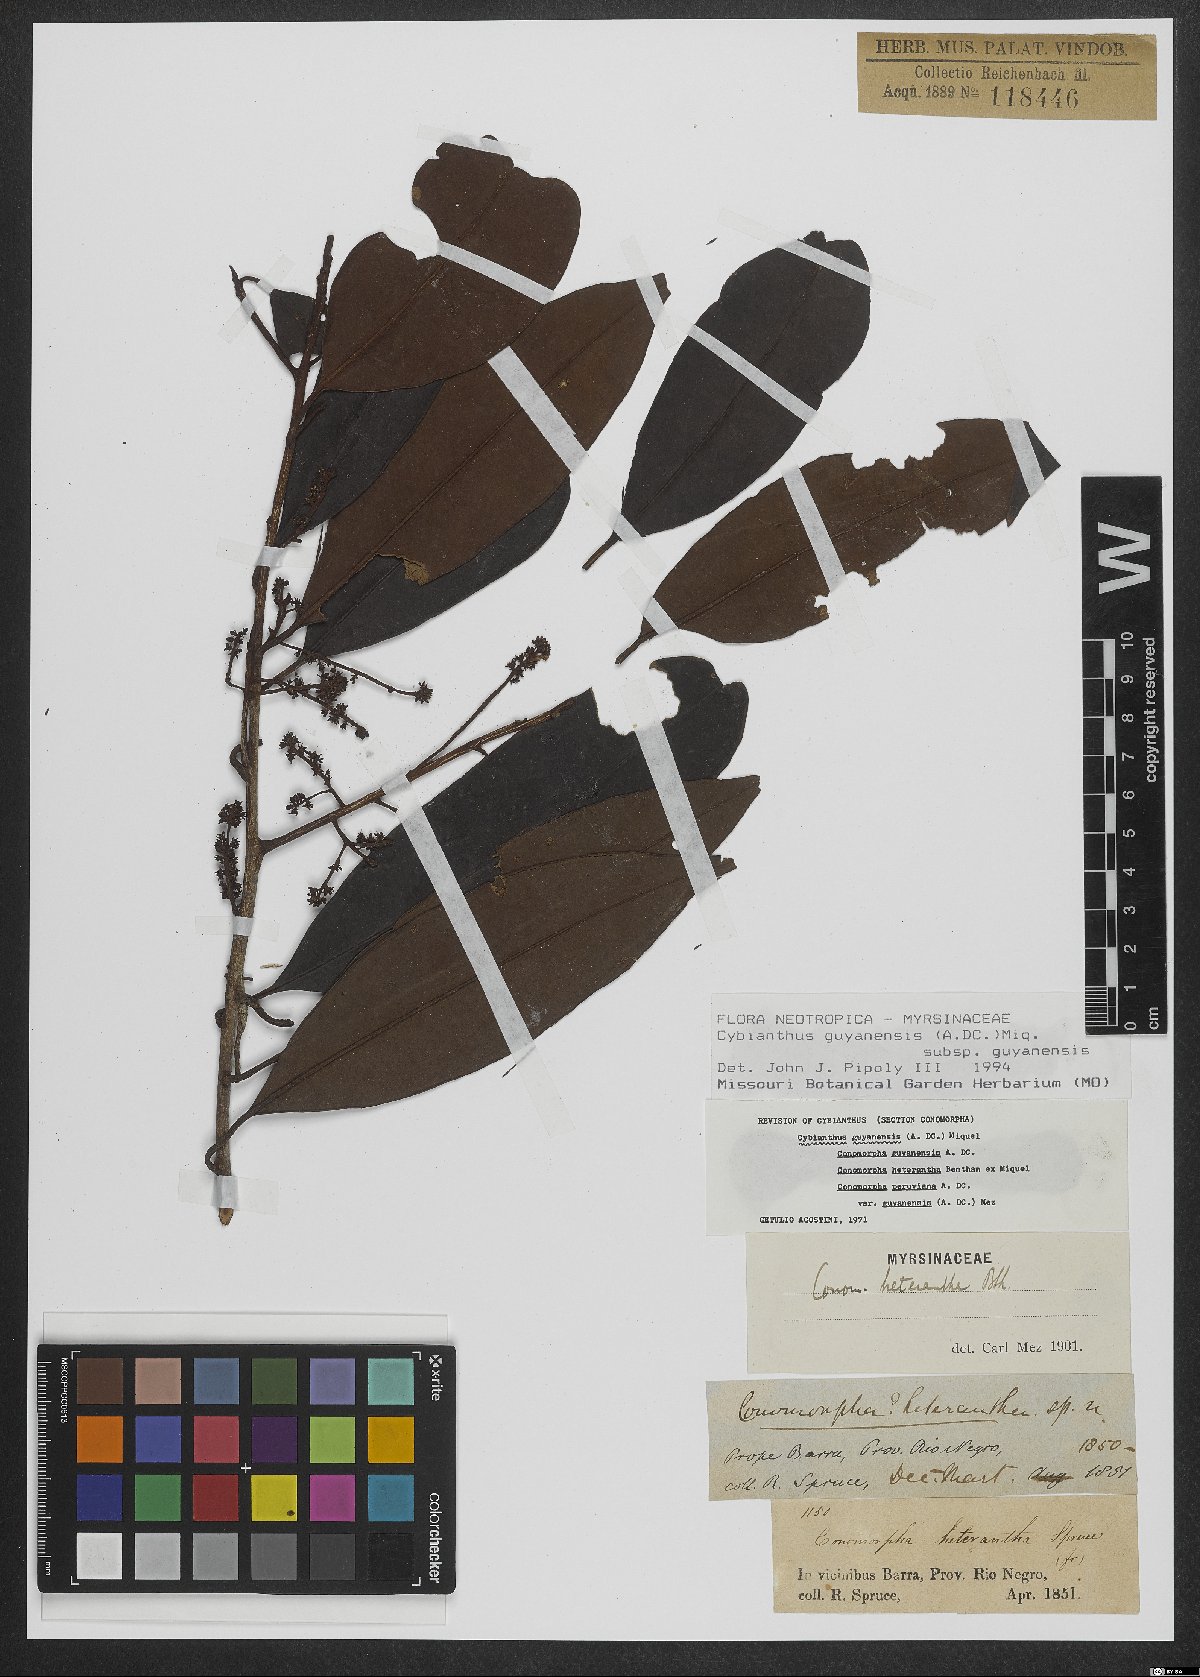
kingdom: Plantae
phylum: Tracheophyta
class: Magnoliopsida
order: Ericales
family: Primulaceae
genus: Cybianthus
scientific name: Cybianthus guyanensis
